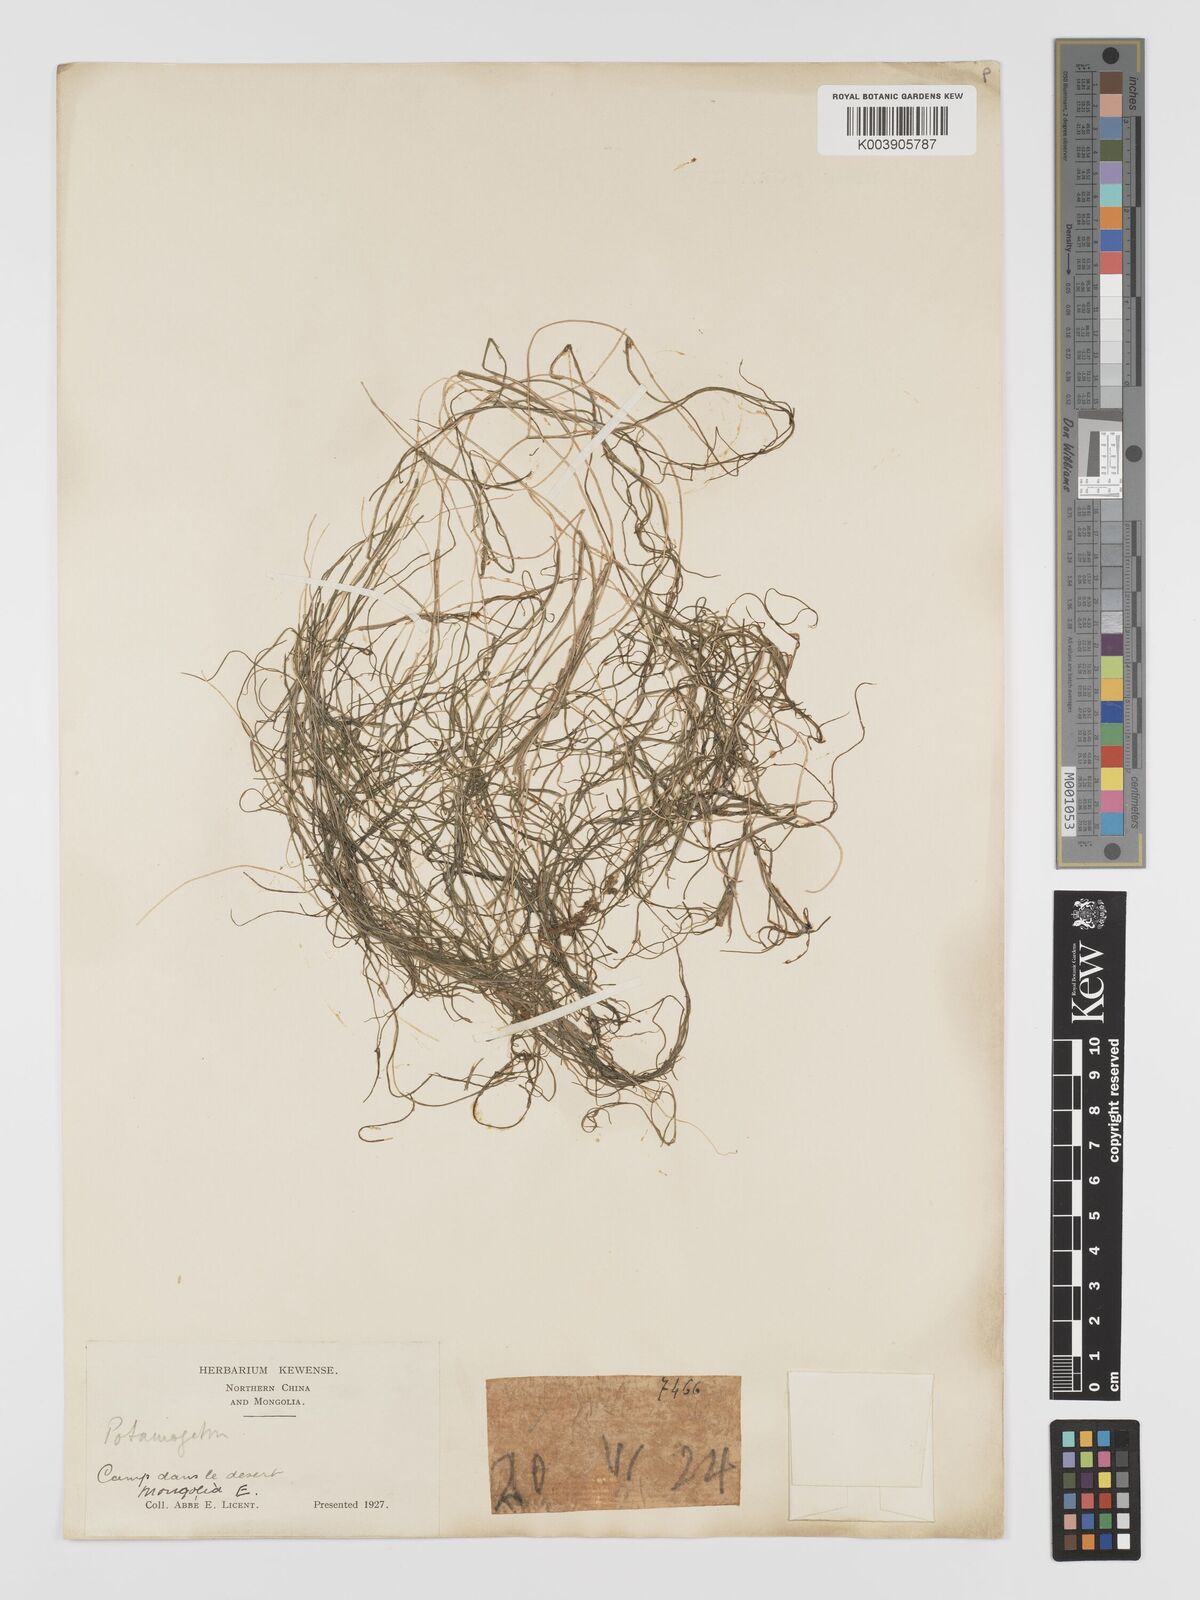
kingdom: Plantae
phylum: Tracheophyta
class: Liliopsida
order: Alismatales
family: Potamogetonaceae
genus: Stuckenia
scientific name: Stuckenia pectinata
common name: Sago pondweed
